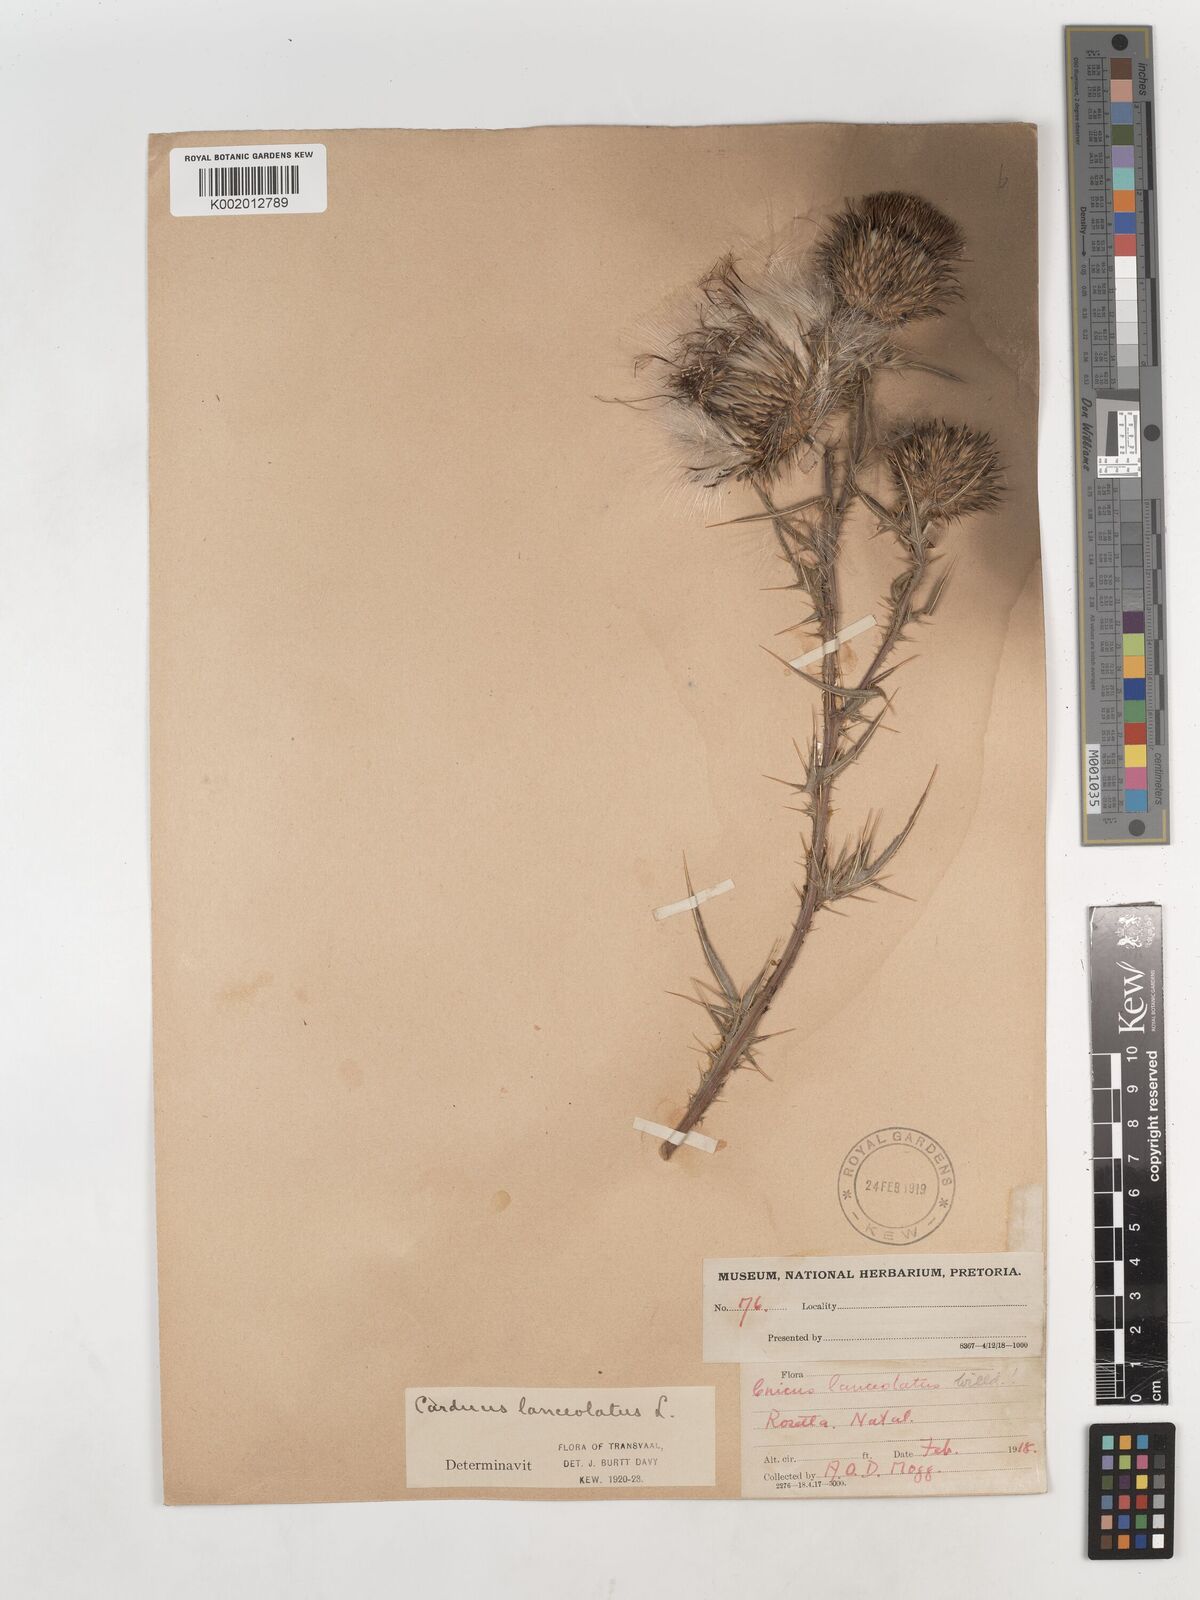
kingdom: Plantae
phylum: Tracheophyta
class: Magnoliopsida
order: Asterales
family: Asteraceae
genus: Cirsium
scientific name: Cirsium vulgare
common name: Bull thistle
